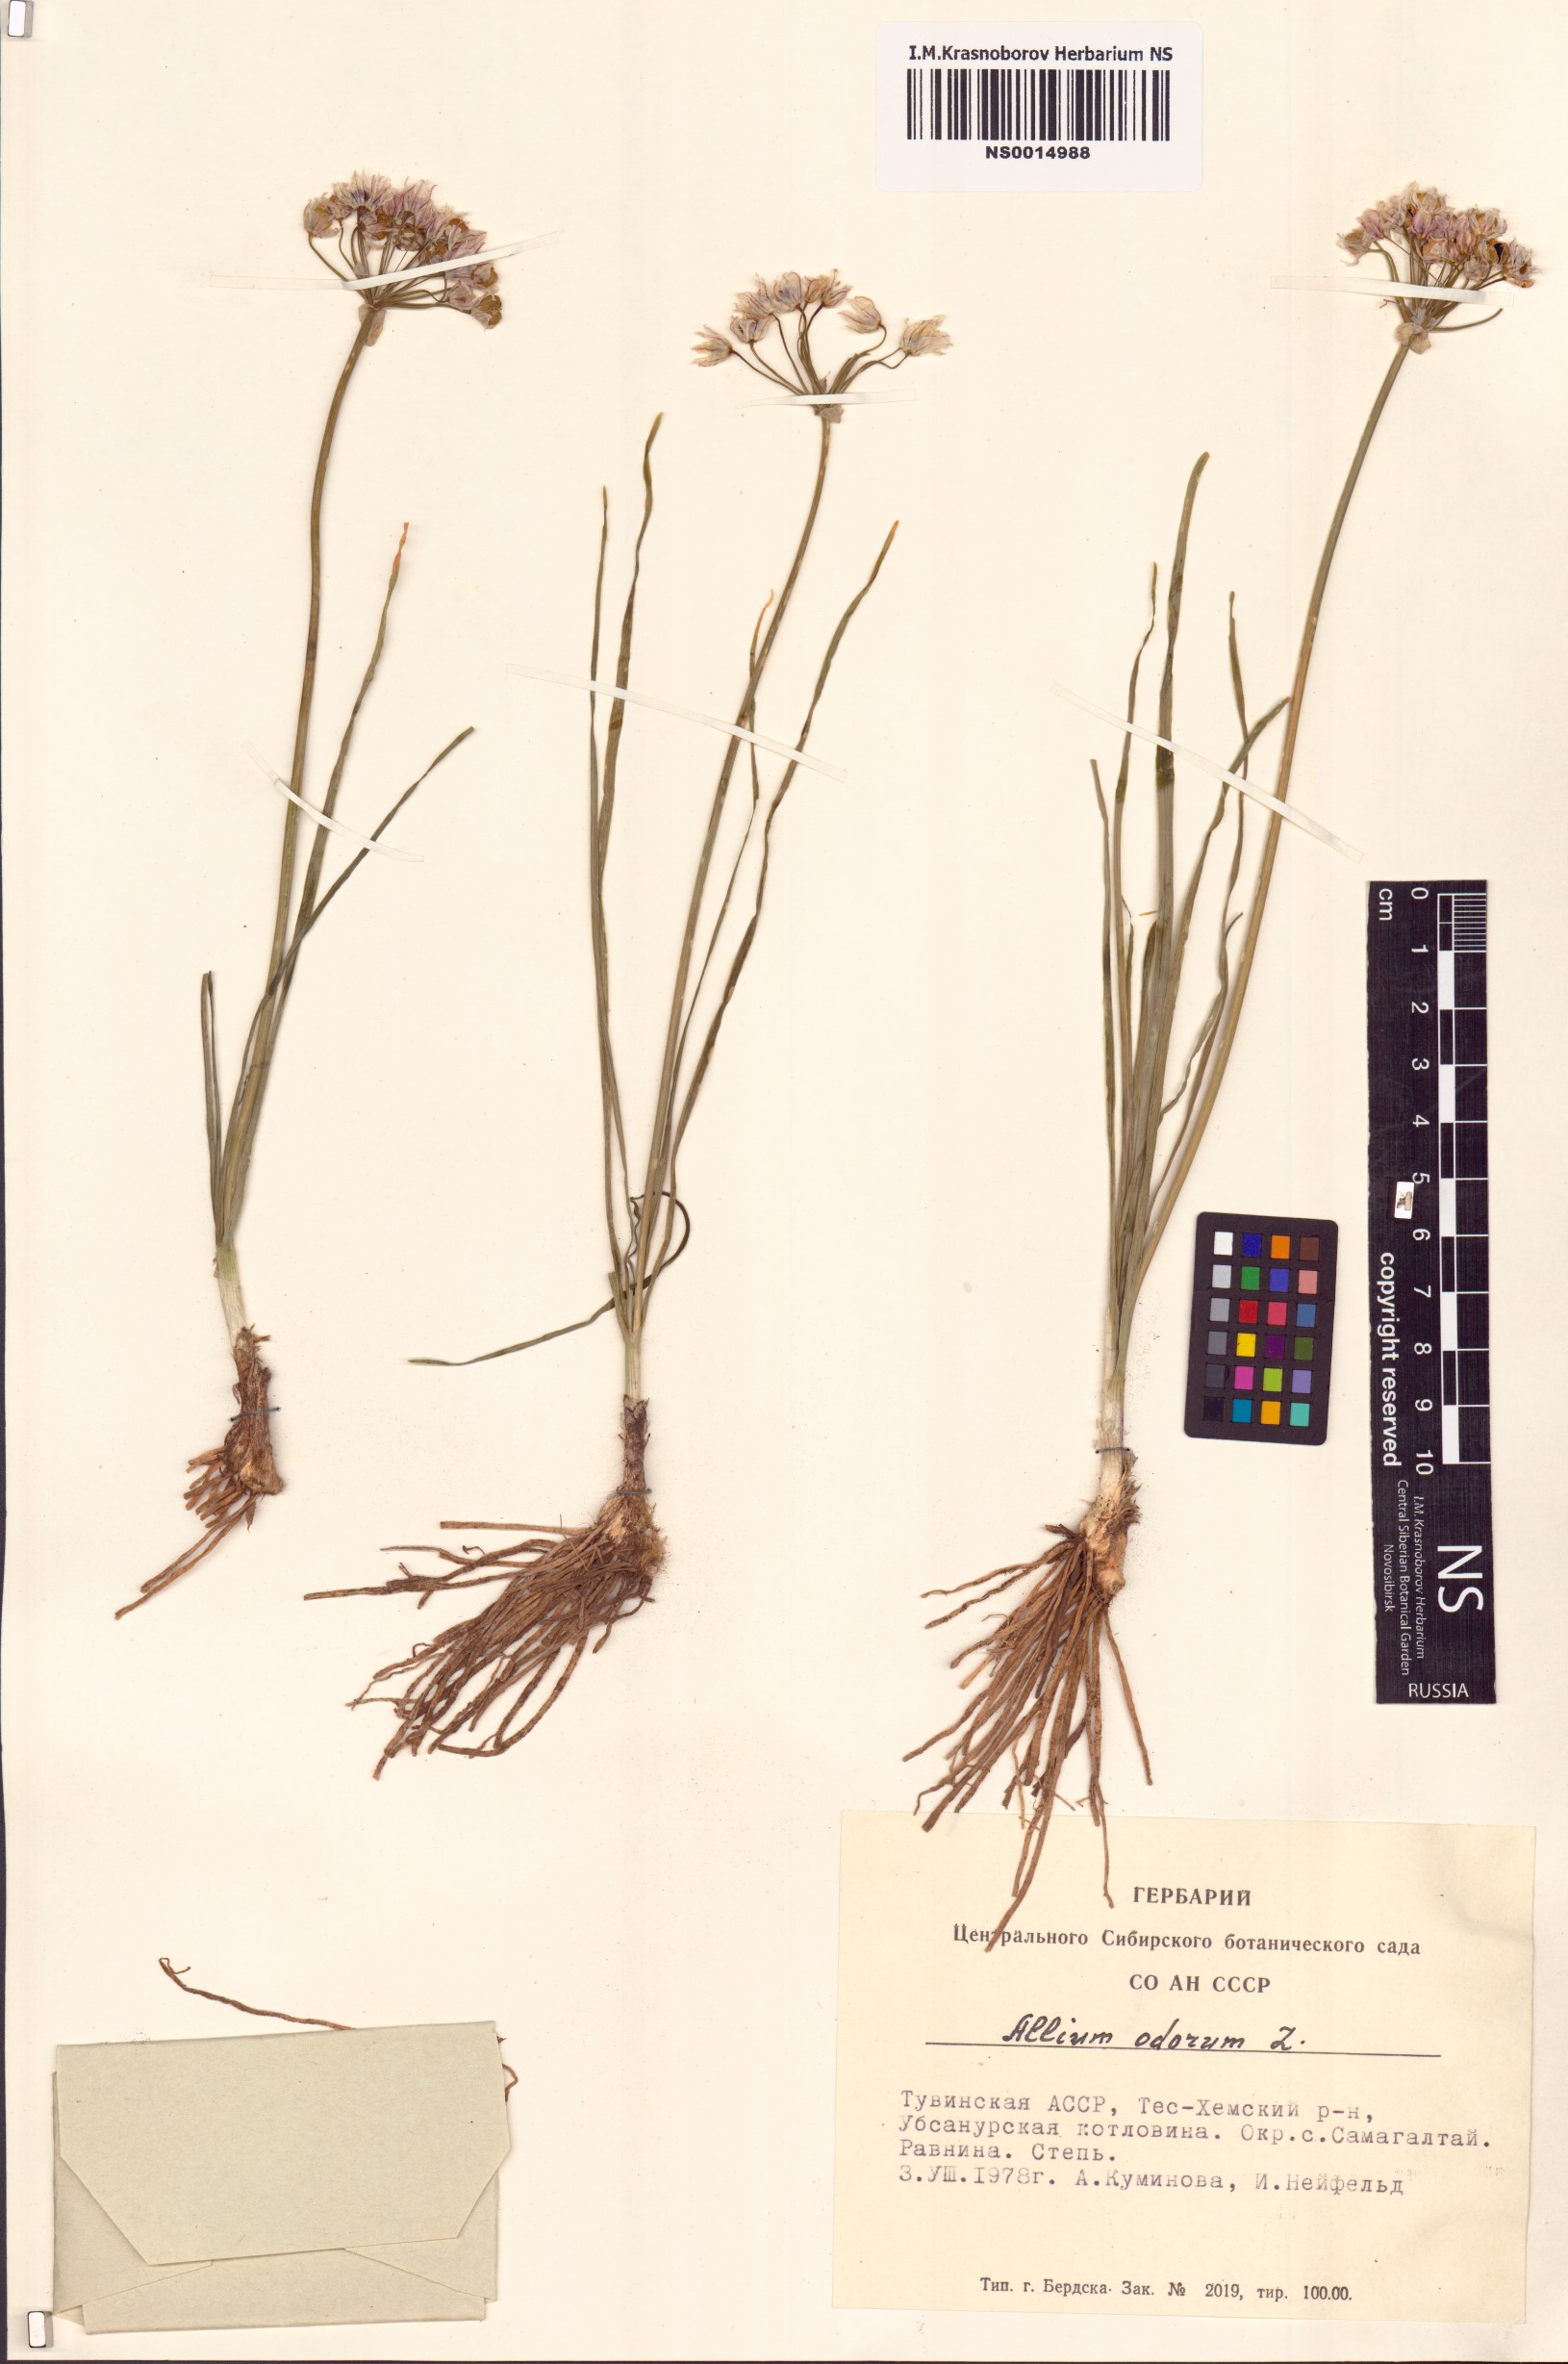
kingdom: Plantae
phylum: Tracheophyta
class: Liliopsida
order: Asparagales
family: Amaryllidaceae
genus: Allium
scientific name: Allium ramosum
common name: Fragrant garlic
